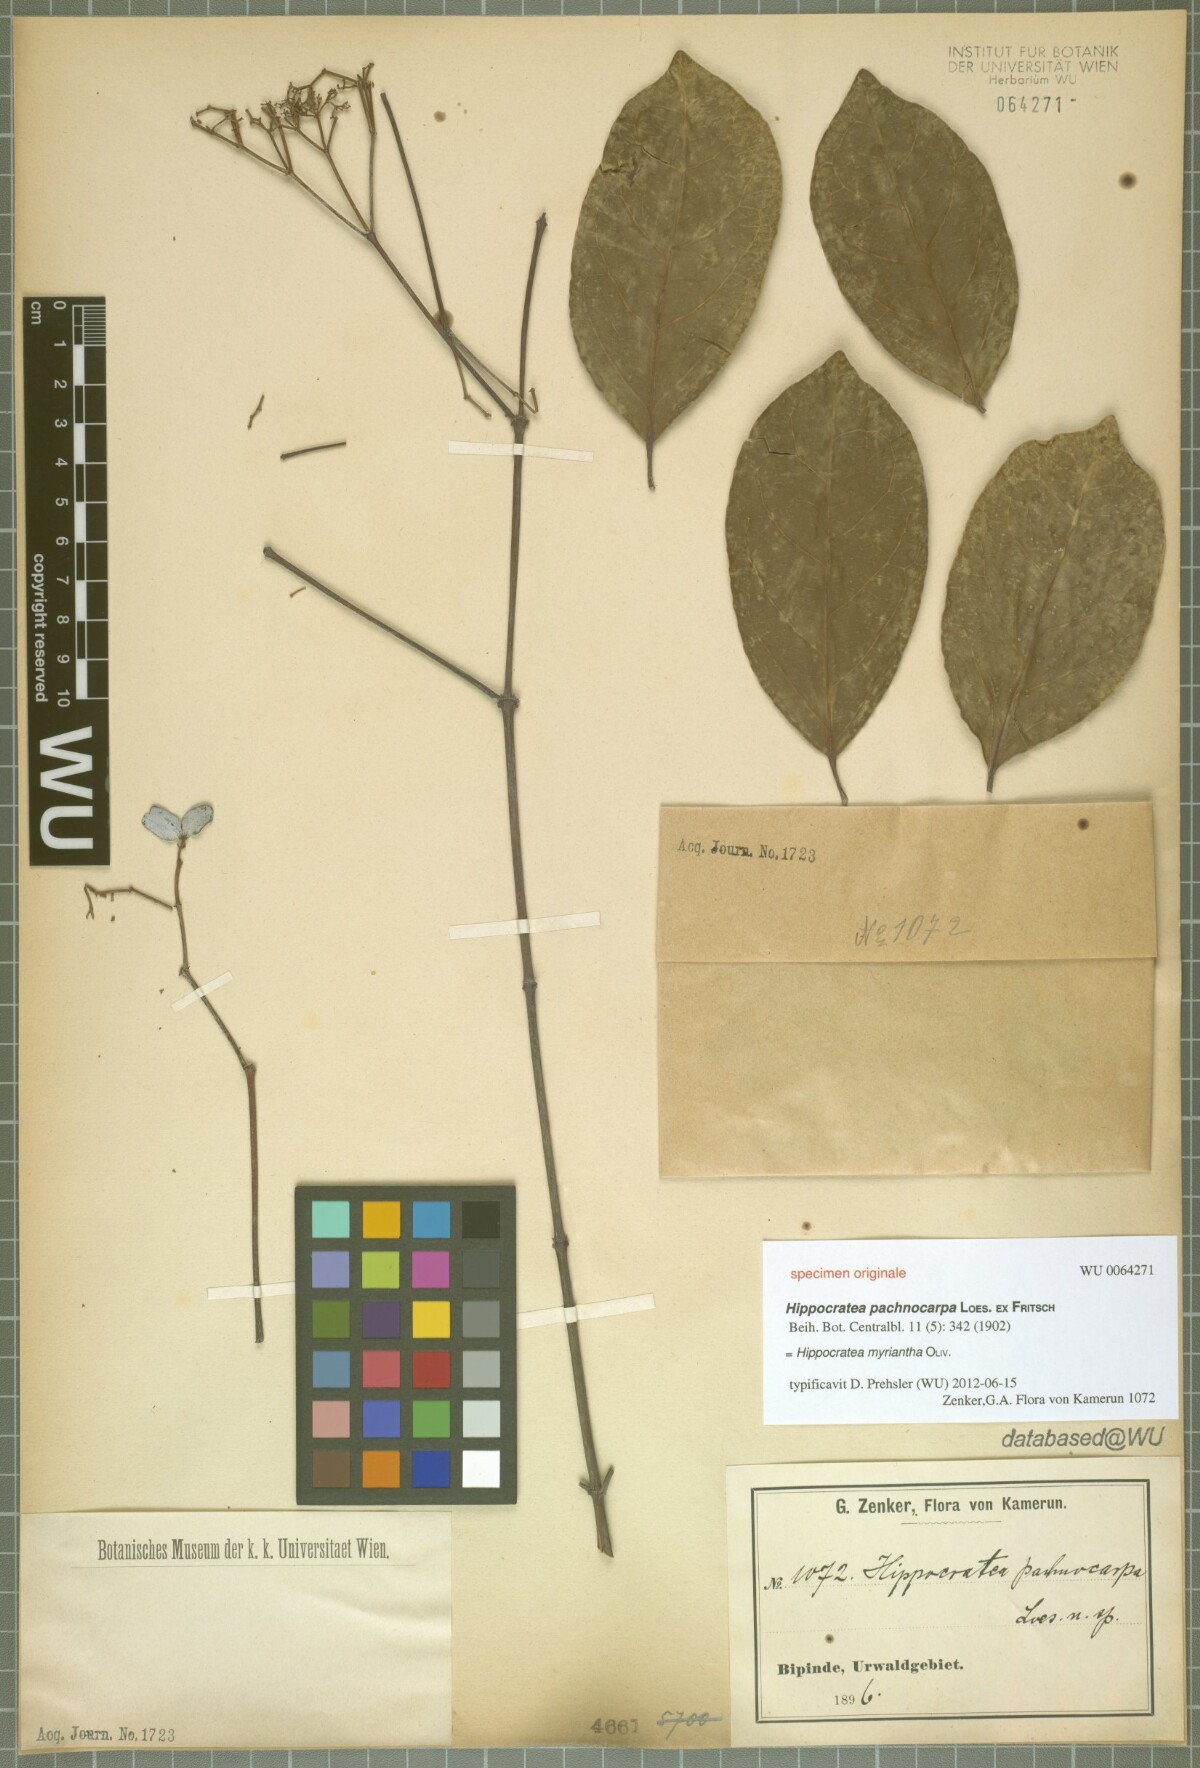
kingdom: Plantae
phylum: Tracheophyta
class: Magnoliopsida
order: Celastrales
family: Celastraceae
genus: Hippocratea
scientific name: Hippocratea myriantha
